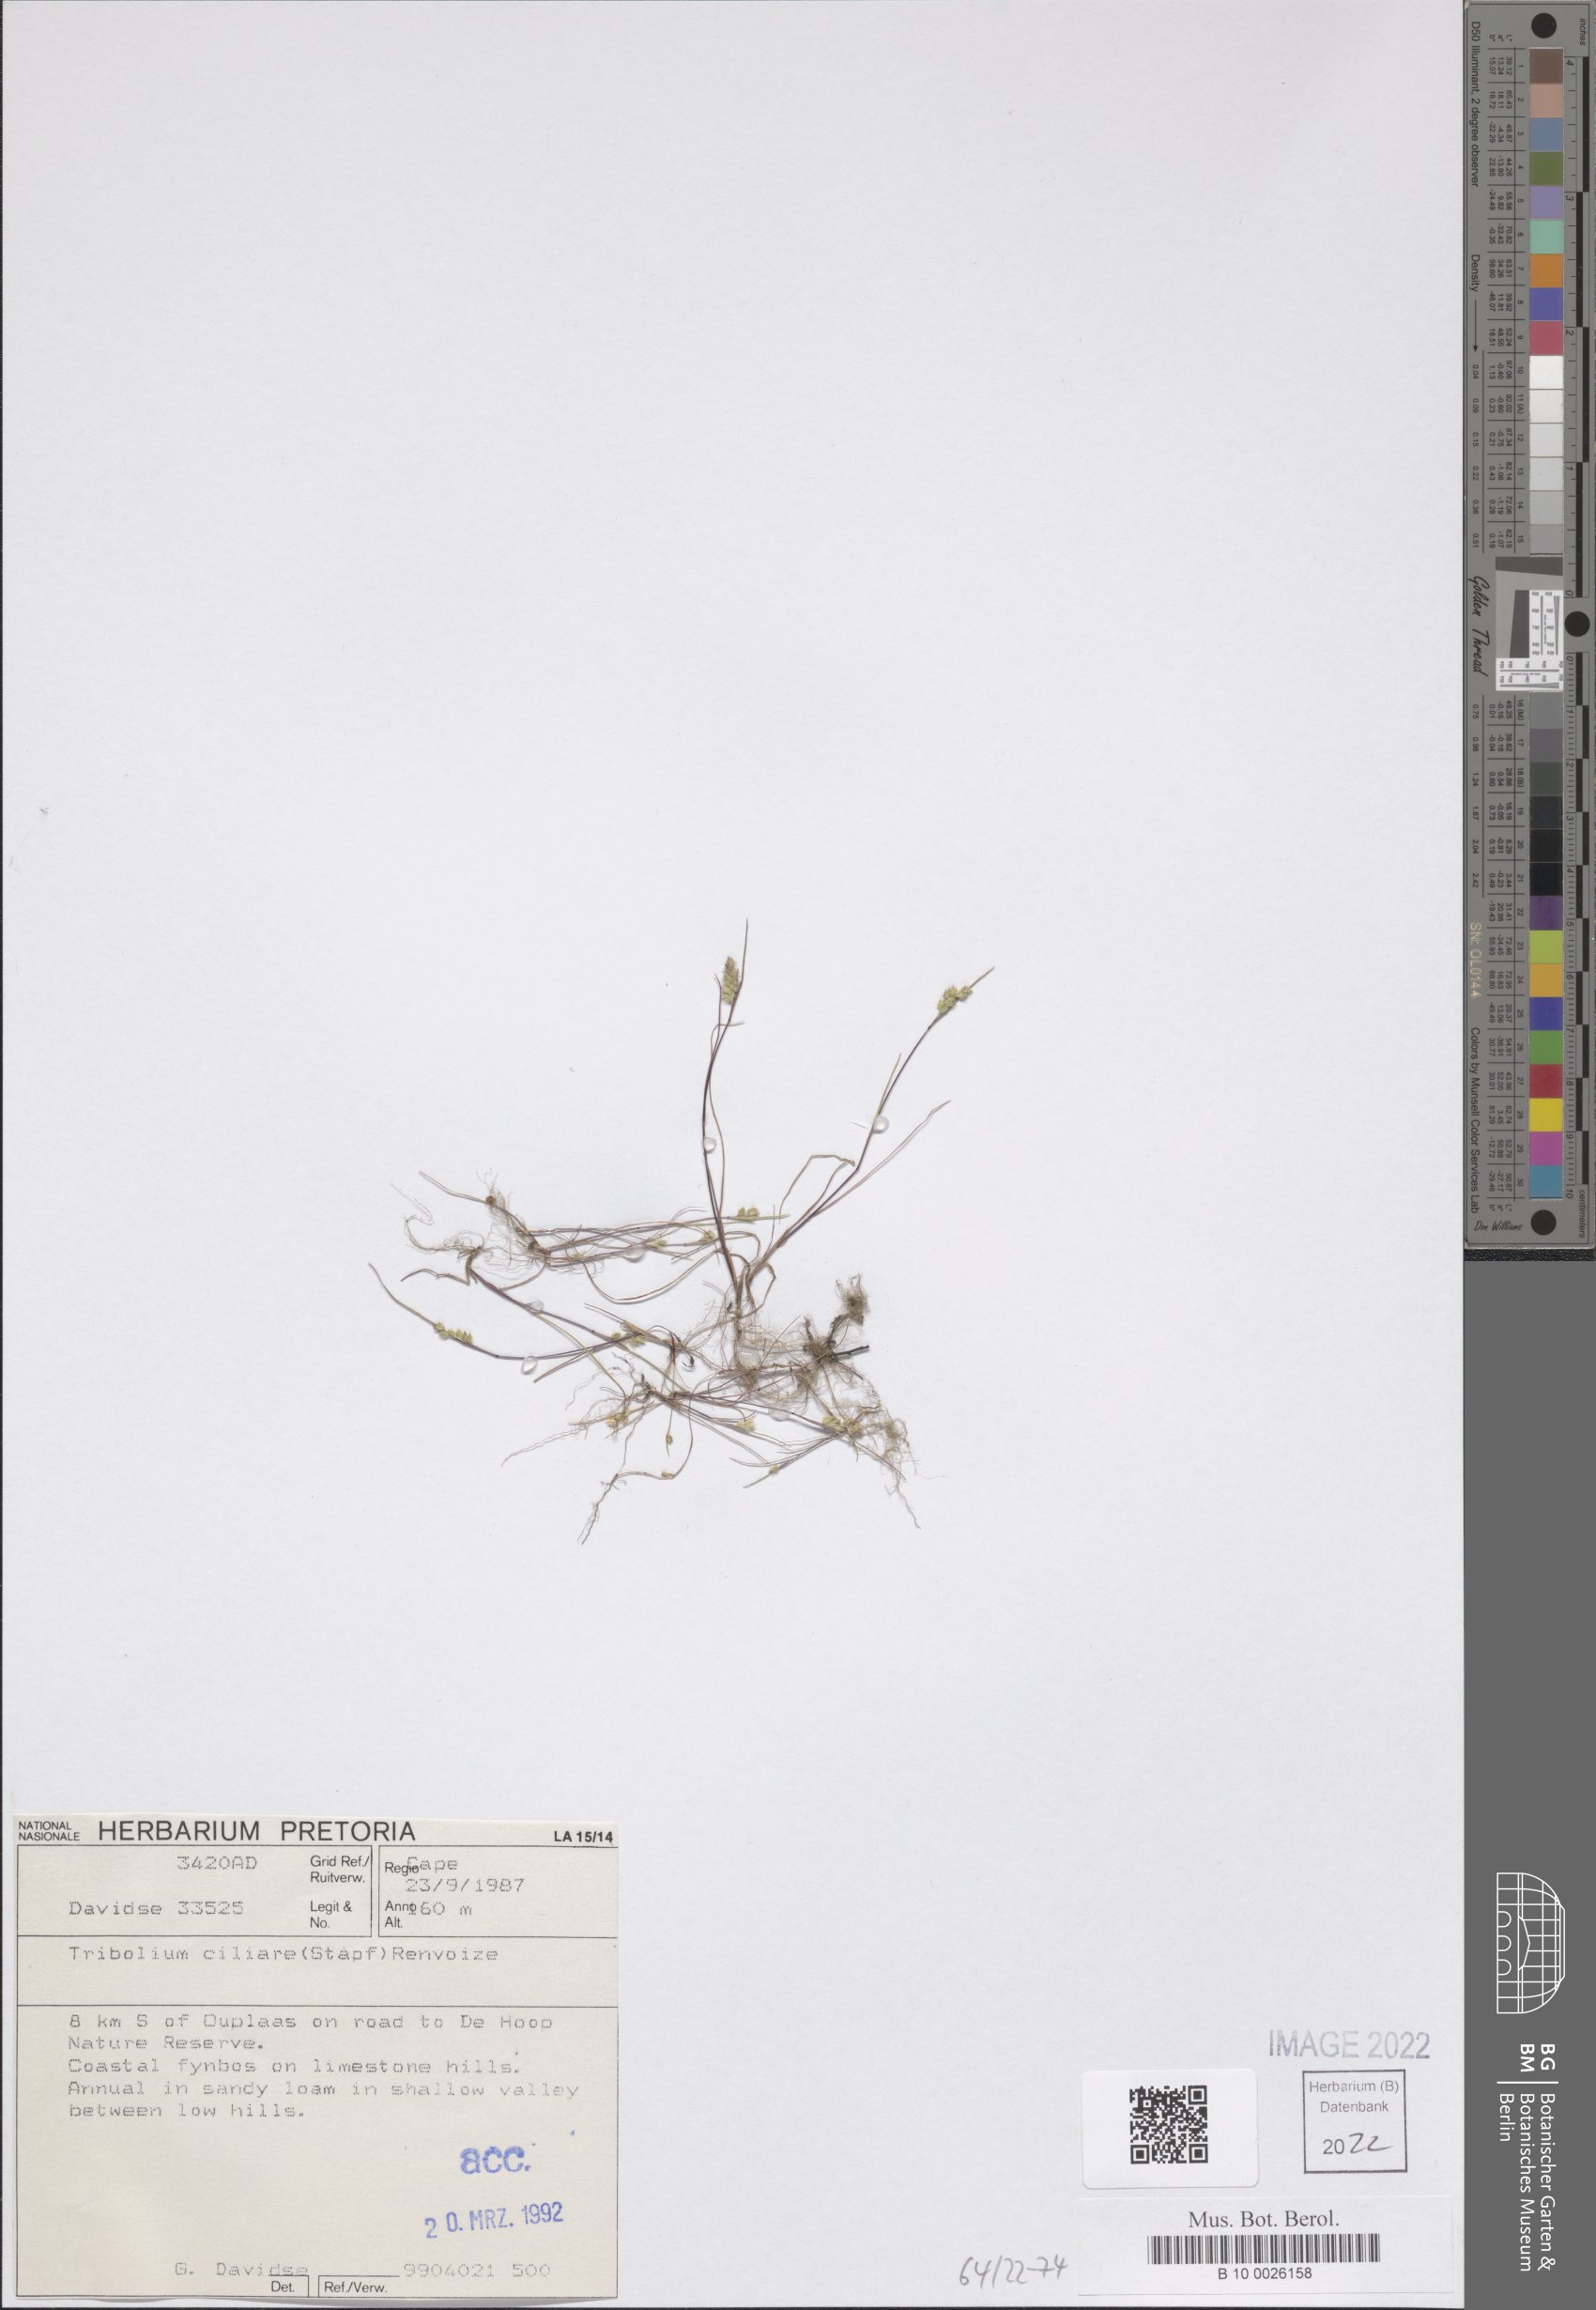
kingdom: Plantae
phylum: Tracheophyta
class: Liliopsida
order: Poales
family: Poaceae
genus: Tribolium
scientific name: Tribolium ciliare
